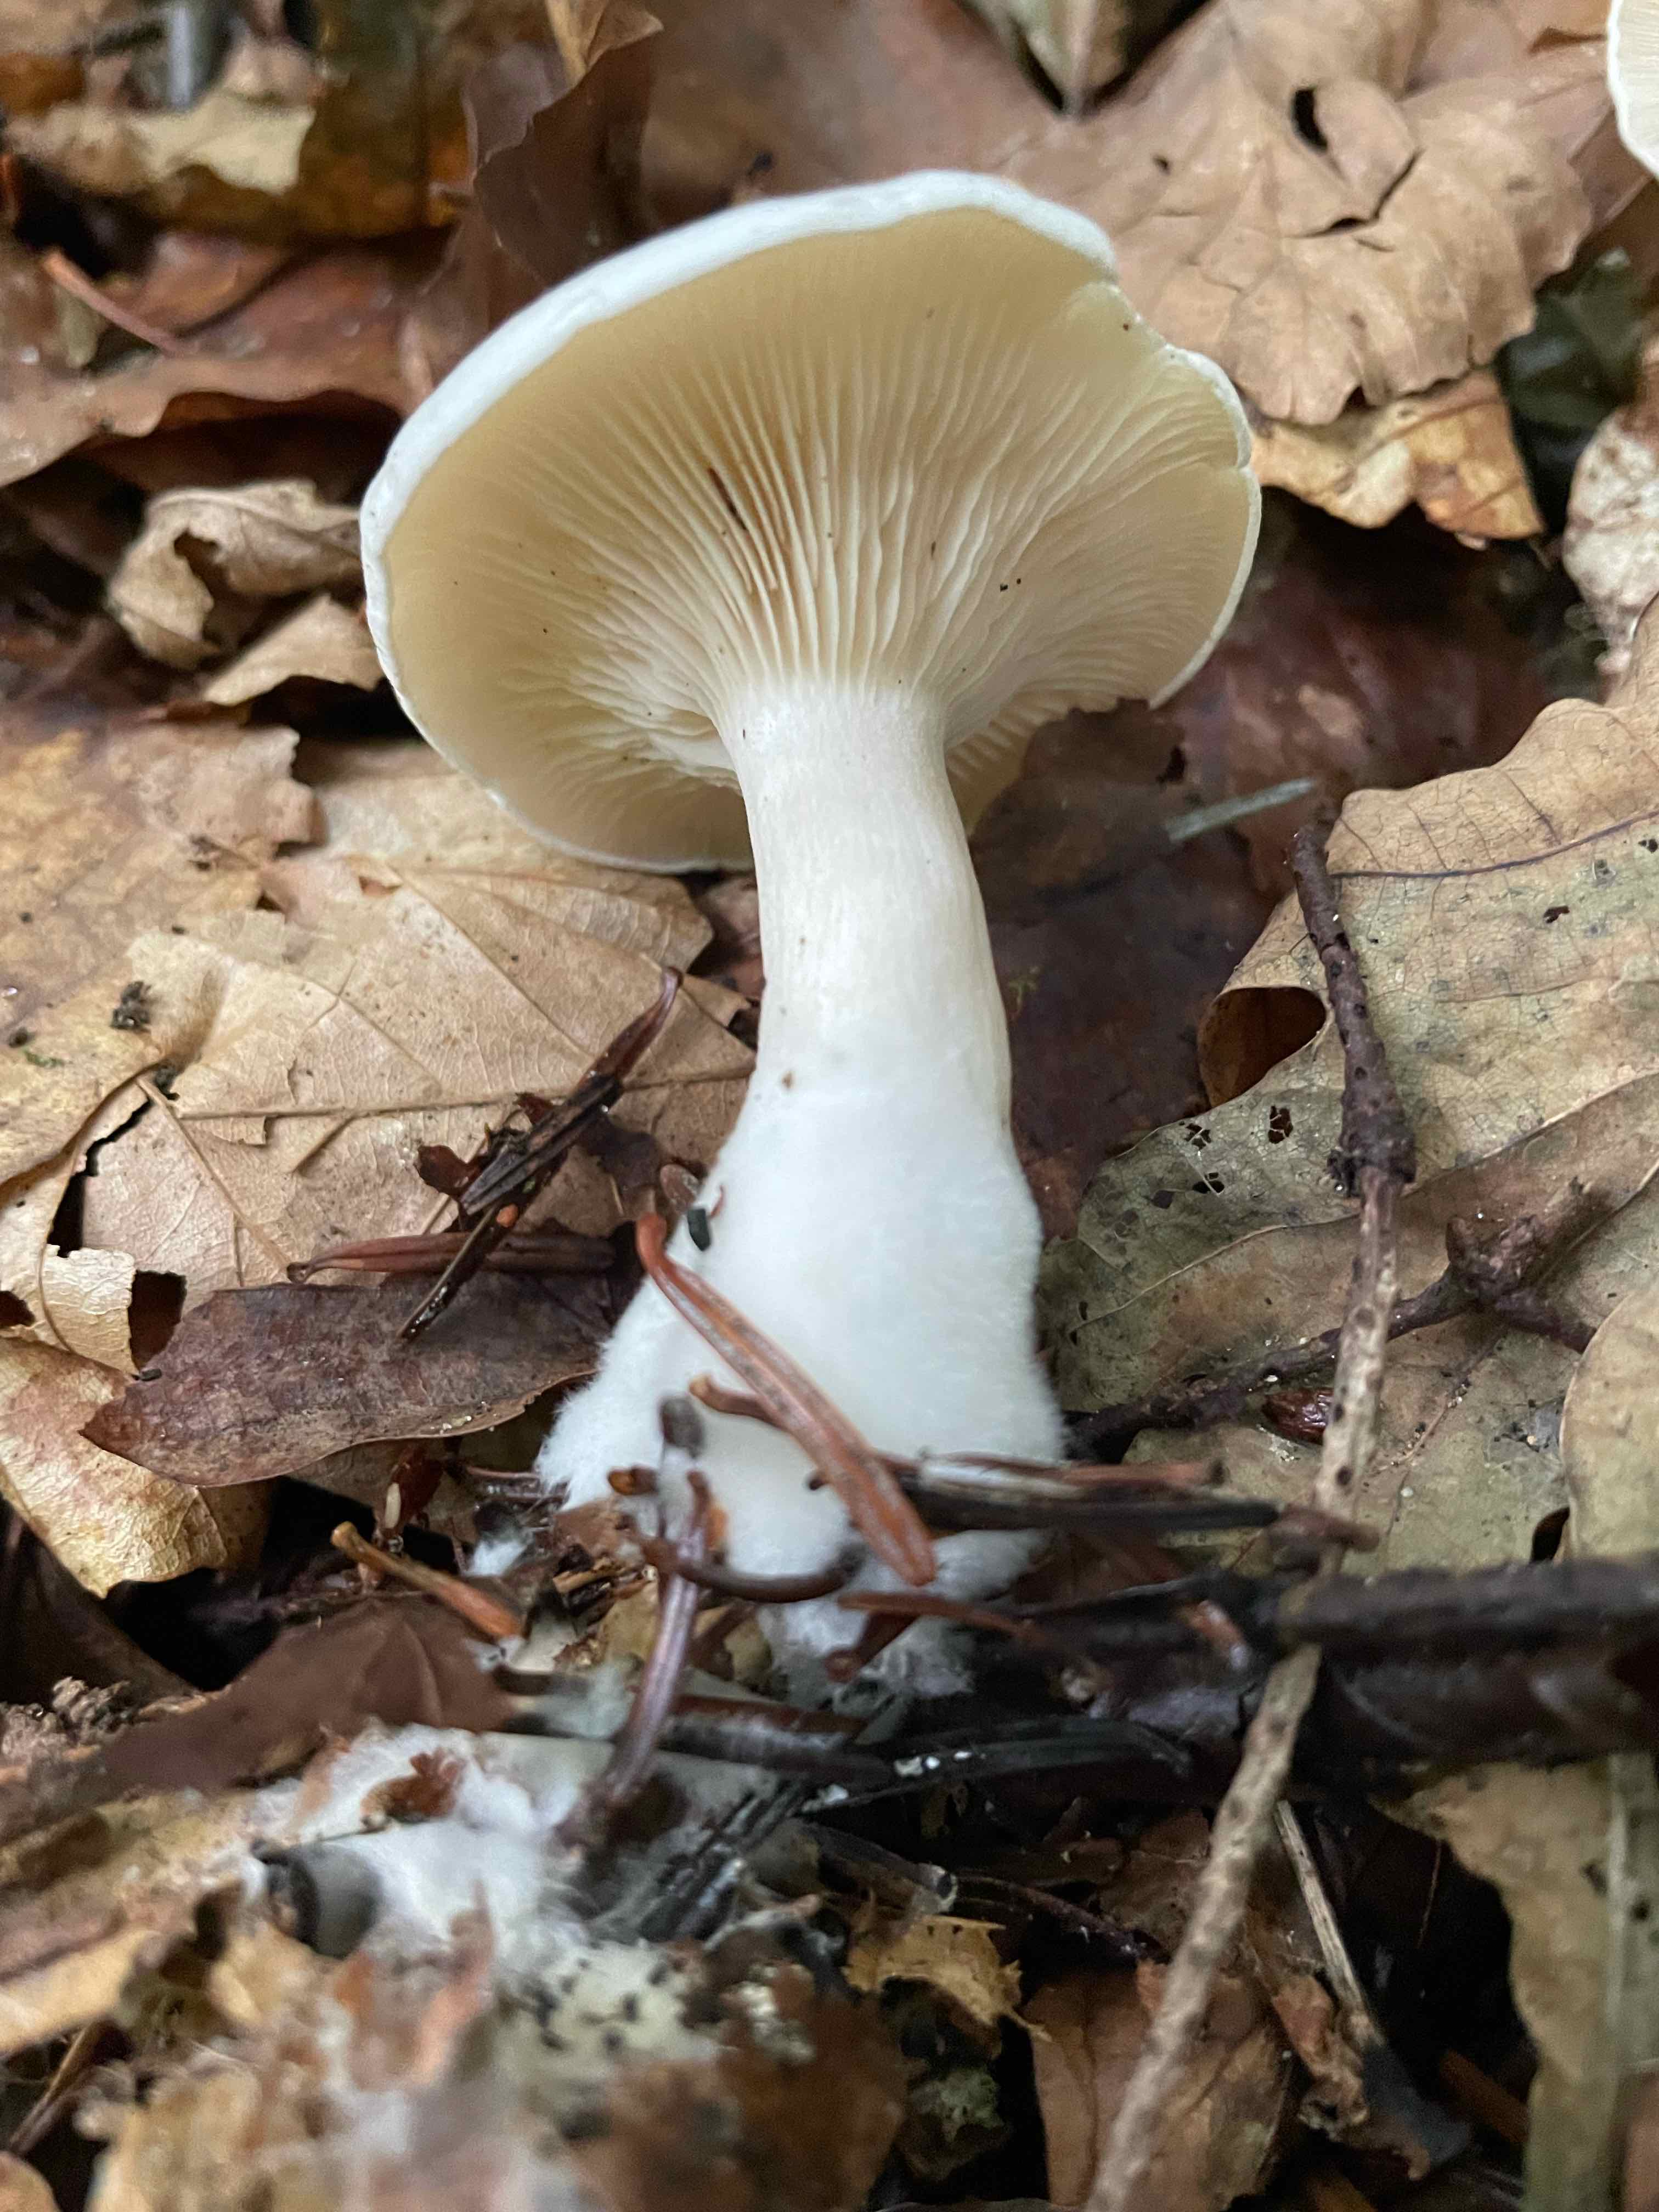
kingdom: Fungi
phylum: Basidiomycota
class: Agaricomycetes
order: Agaricales
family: Tricholomataceae
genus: Clitocybe
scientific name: Clitocybe
